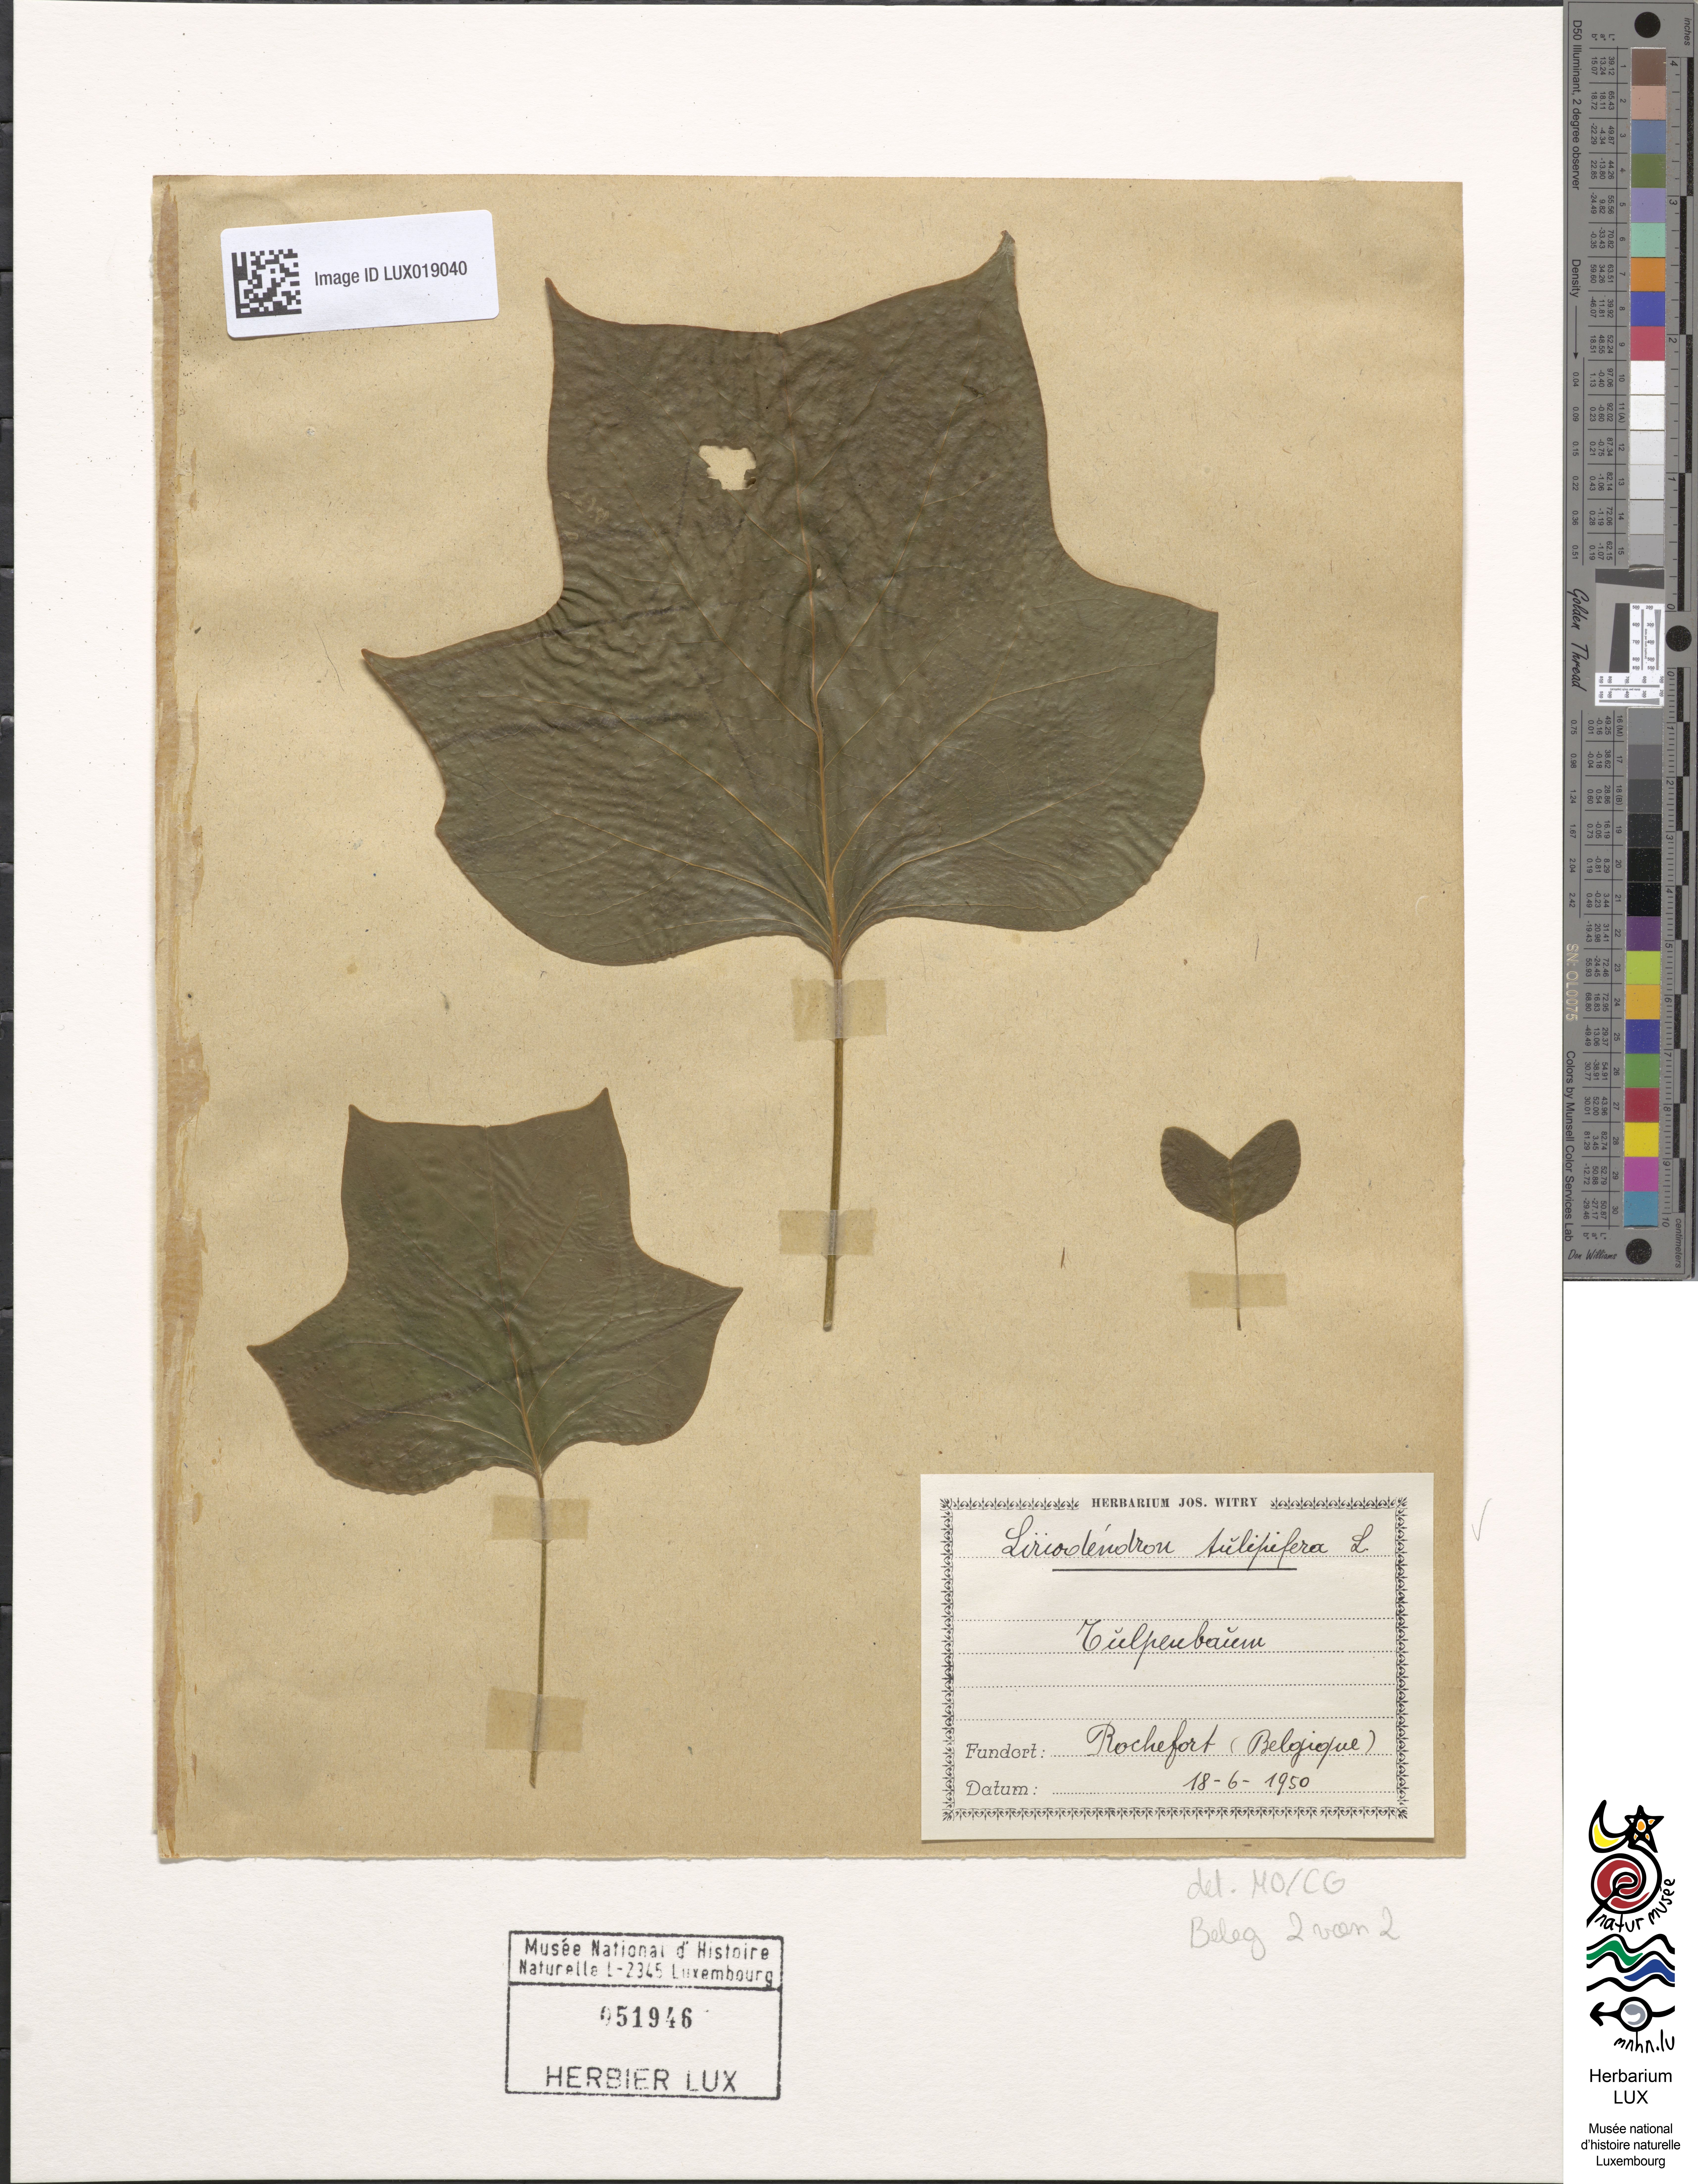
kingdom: Plantae
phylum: Tracheophyta
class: Magnoliopsida
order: Magnoliales
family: Magnoliaceae
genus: Liriodendron
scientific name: Liriodendron tulipifera
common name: Tulip tree
